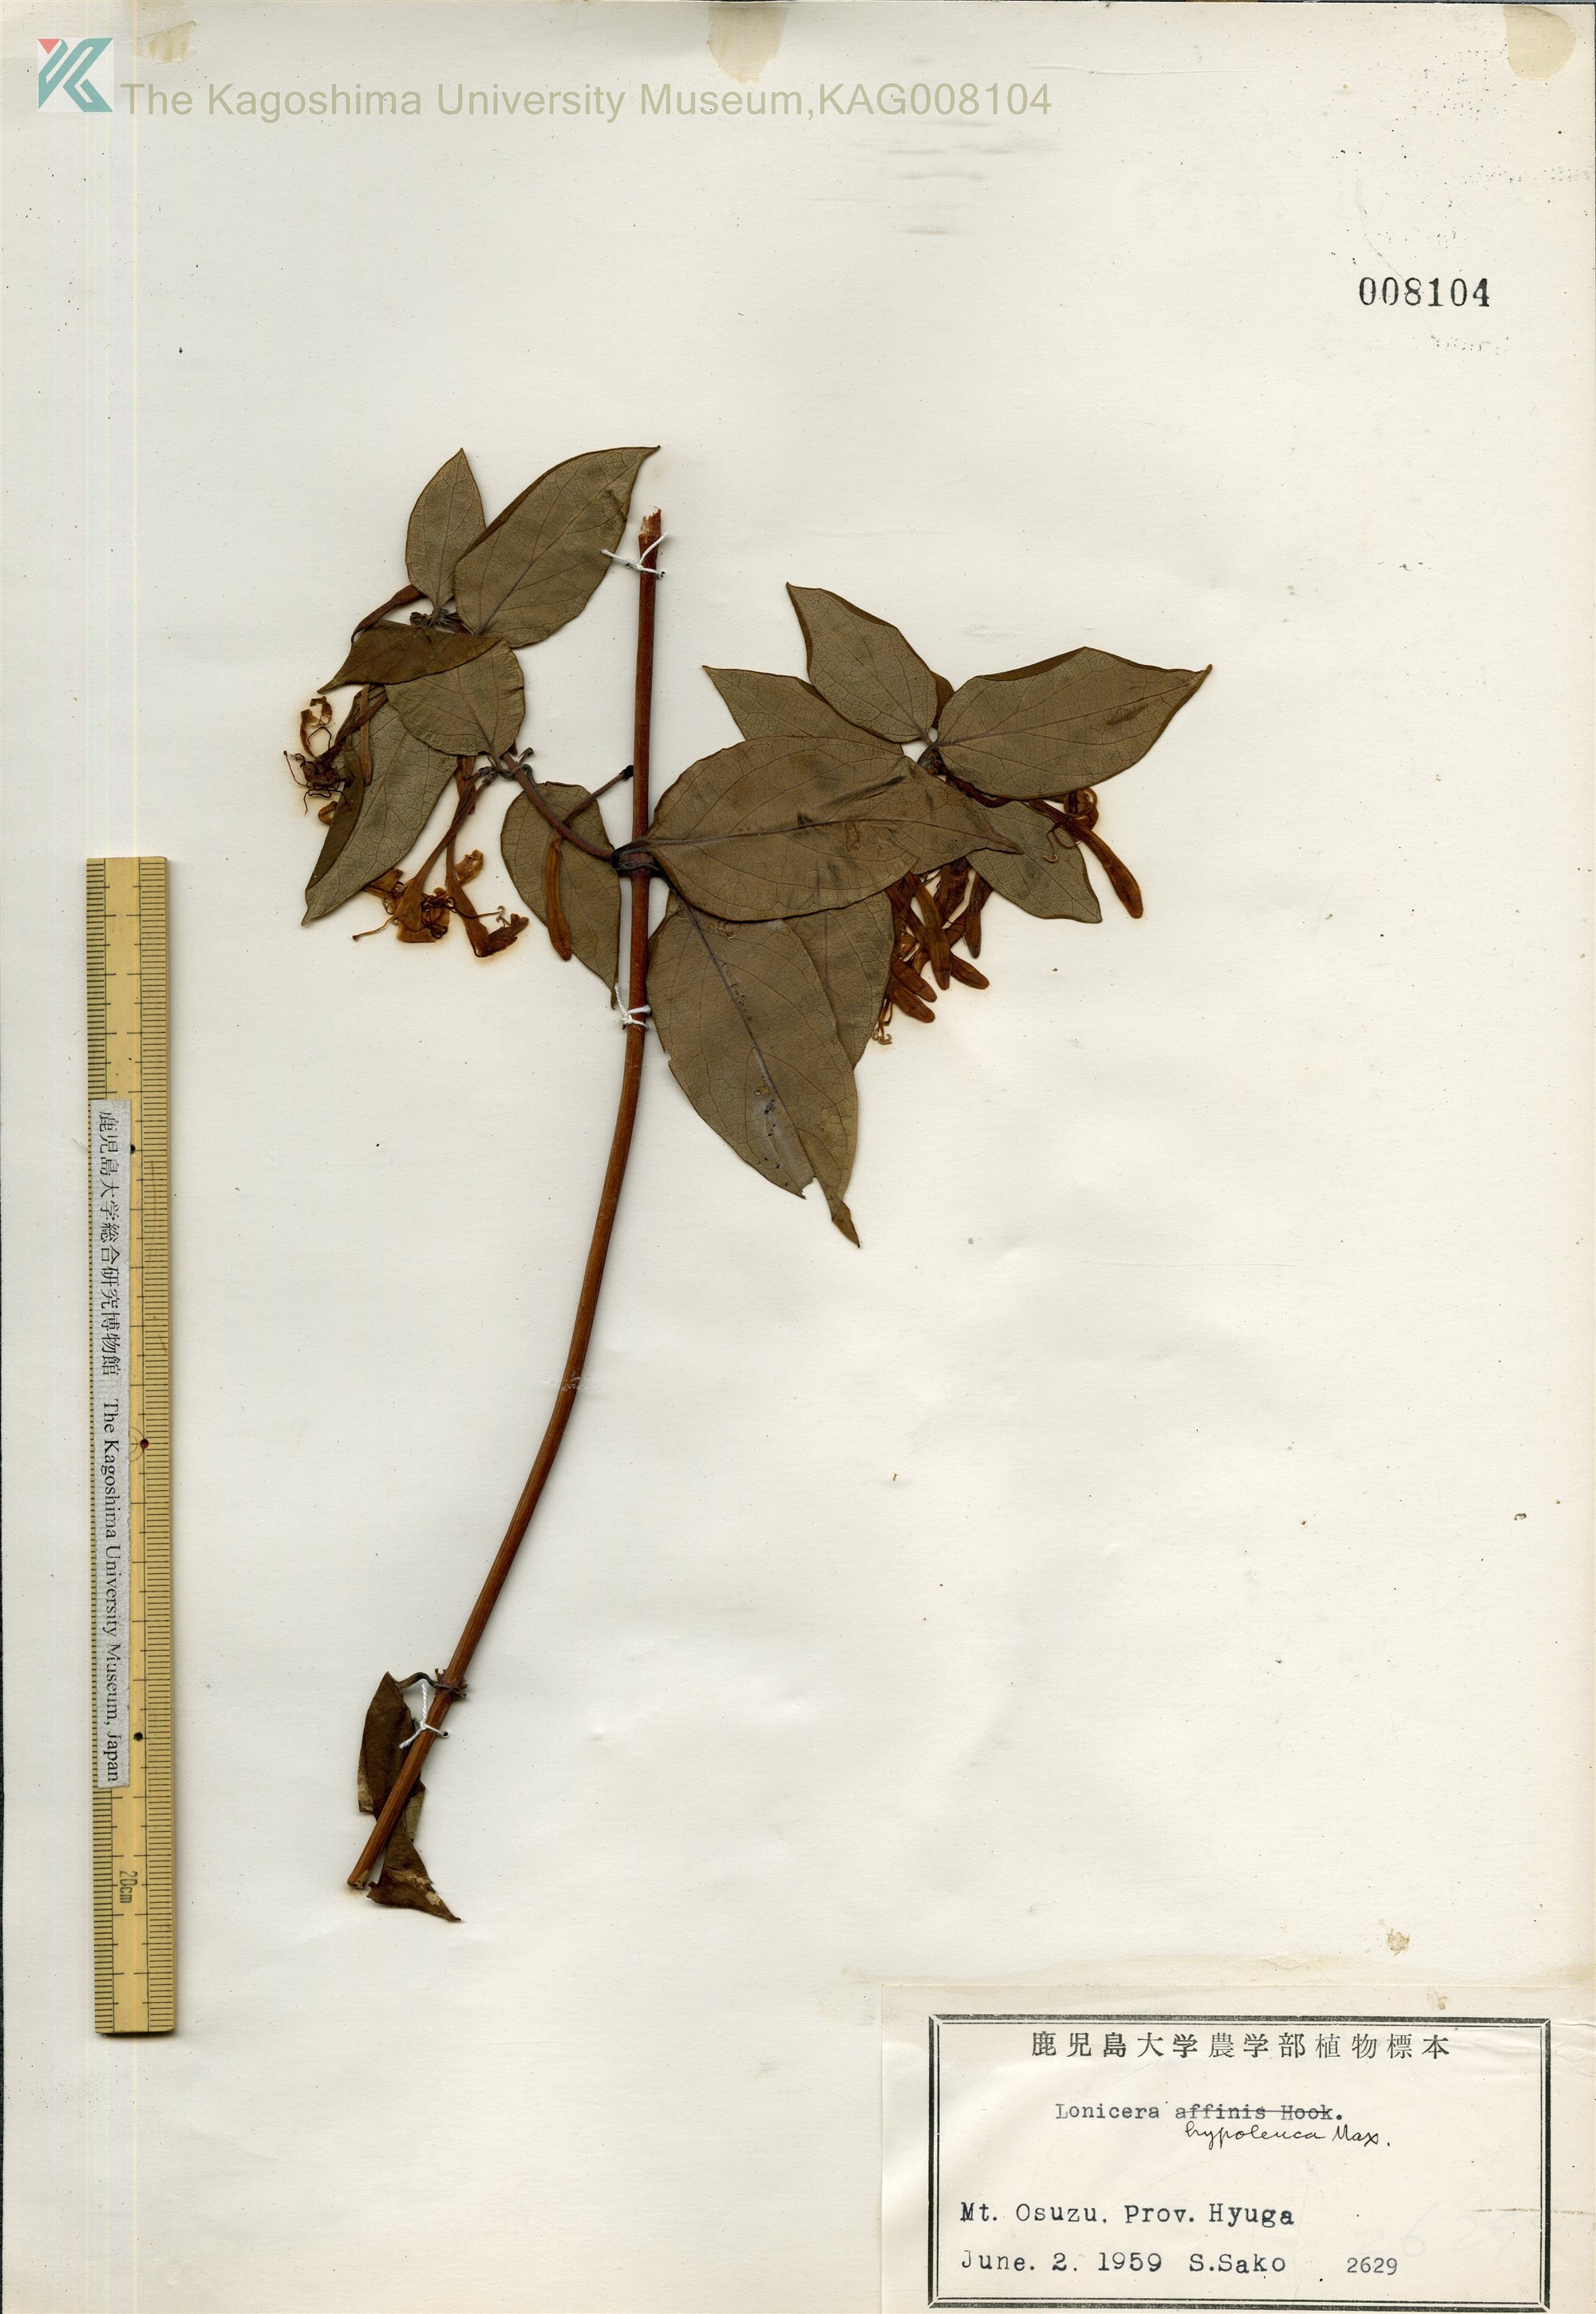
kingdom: Plantae
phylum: Tracheophyta
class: Magnoliopsida
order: Dipsacales
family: Caprifoliaceae
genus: Lonicera
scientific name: Lonicera hypoglauca
